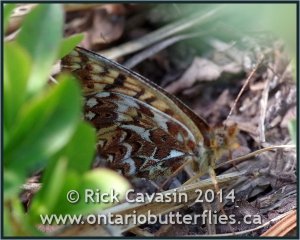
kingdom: Animalia
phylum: Arthropoda
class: Insecta
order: Lepidoptera
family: Nymphalidae
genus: Boloria
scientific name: Boloria freija
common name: Freija Fritillary
